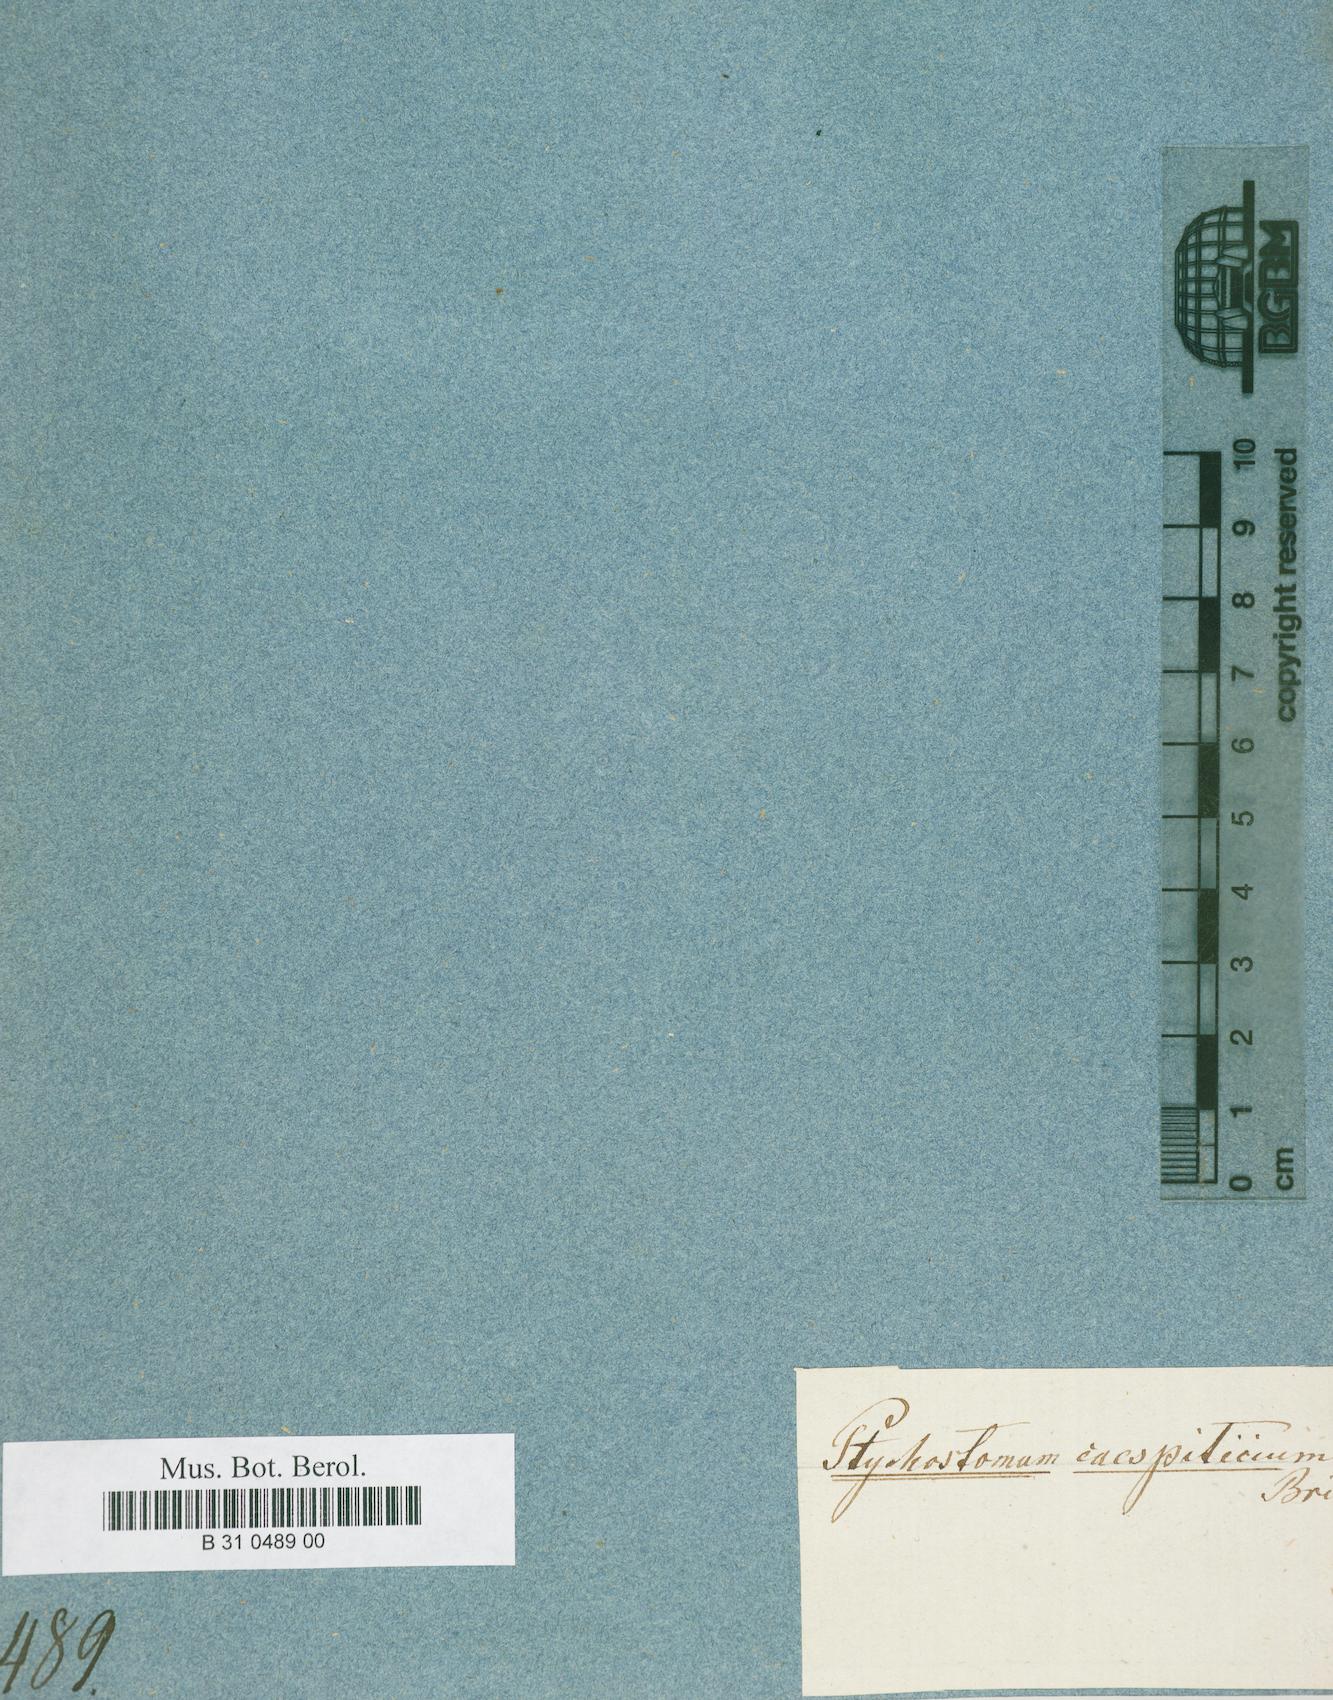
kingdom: Plantae
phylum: Bryophyta
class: Bryopsida
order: Bryales
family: Bryaceae
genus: Ptychostomum
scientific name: Ptychostomum compactum
